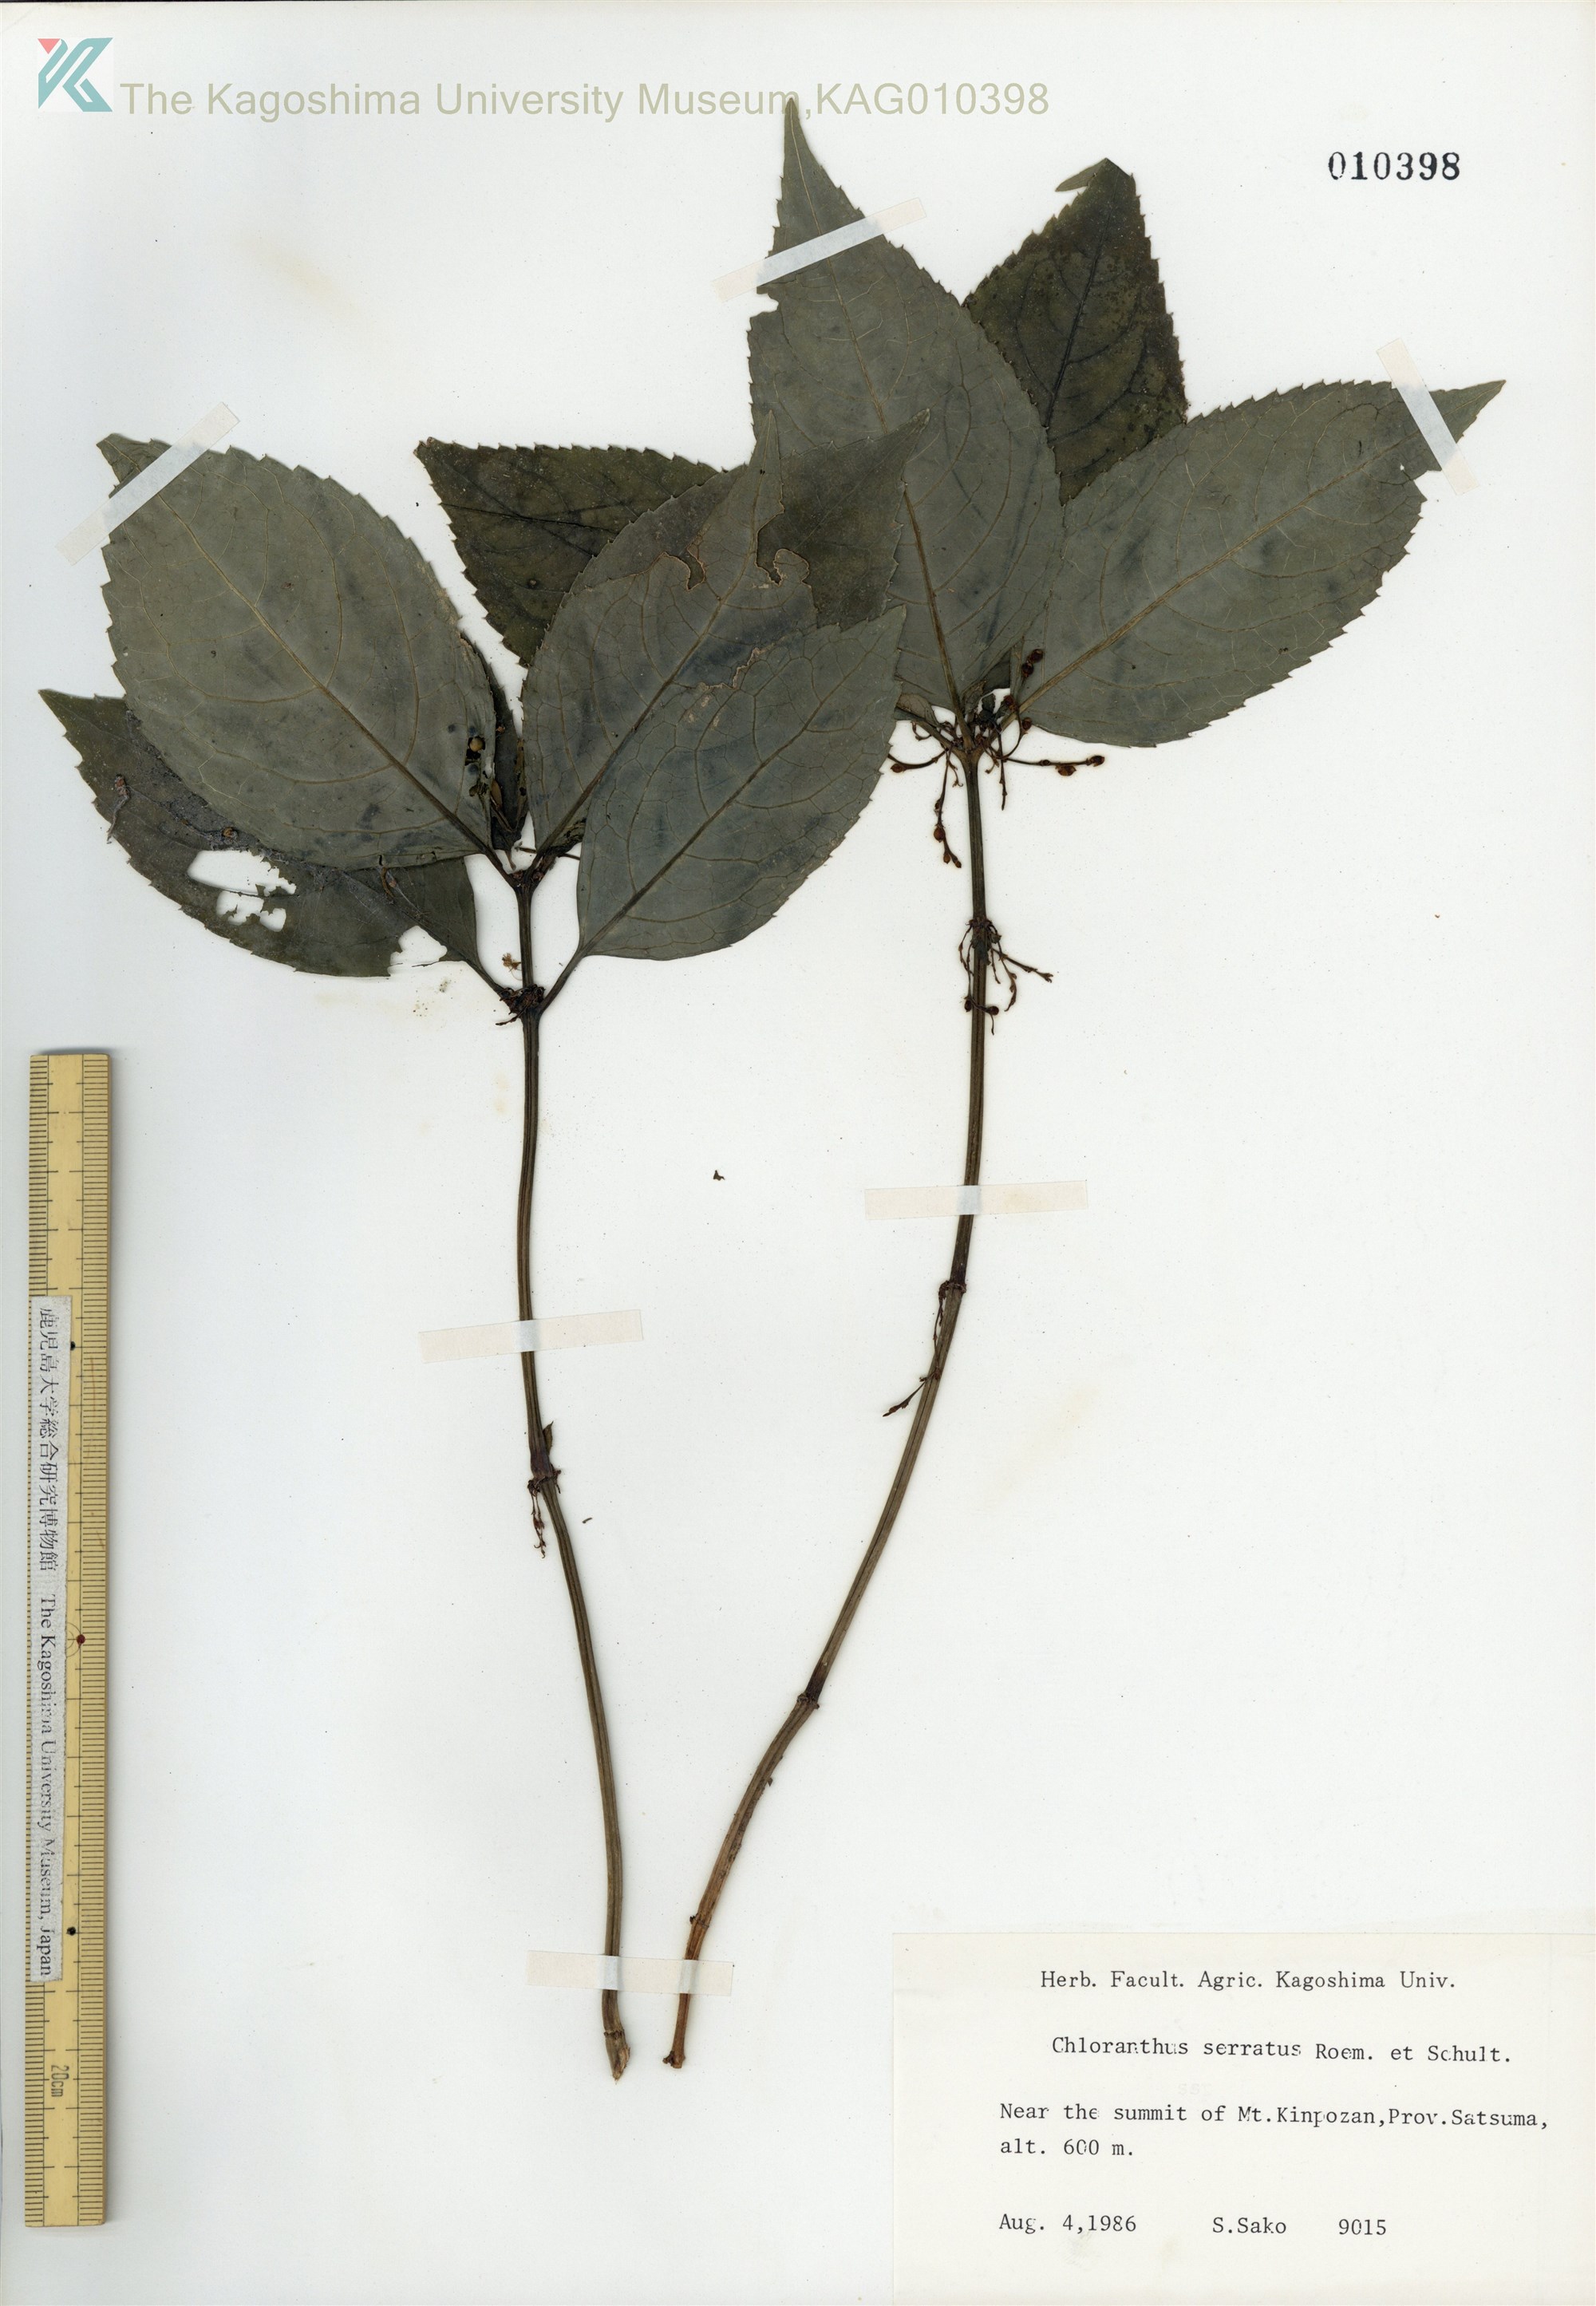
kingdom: Plantae
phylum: Tracheophyta
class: Magnoliopsida
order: Chloranthales
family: Chloranthaceae
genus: Chloranthus
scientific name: Chloranthus serratus
